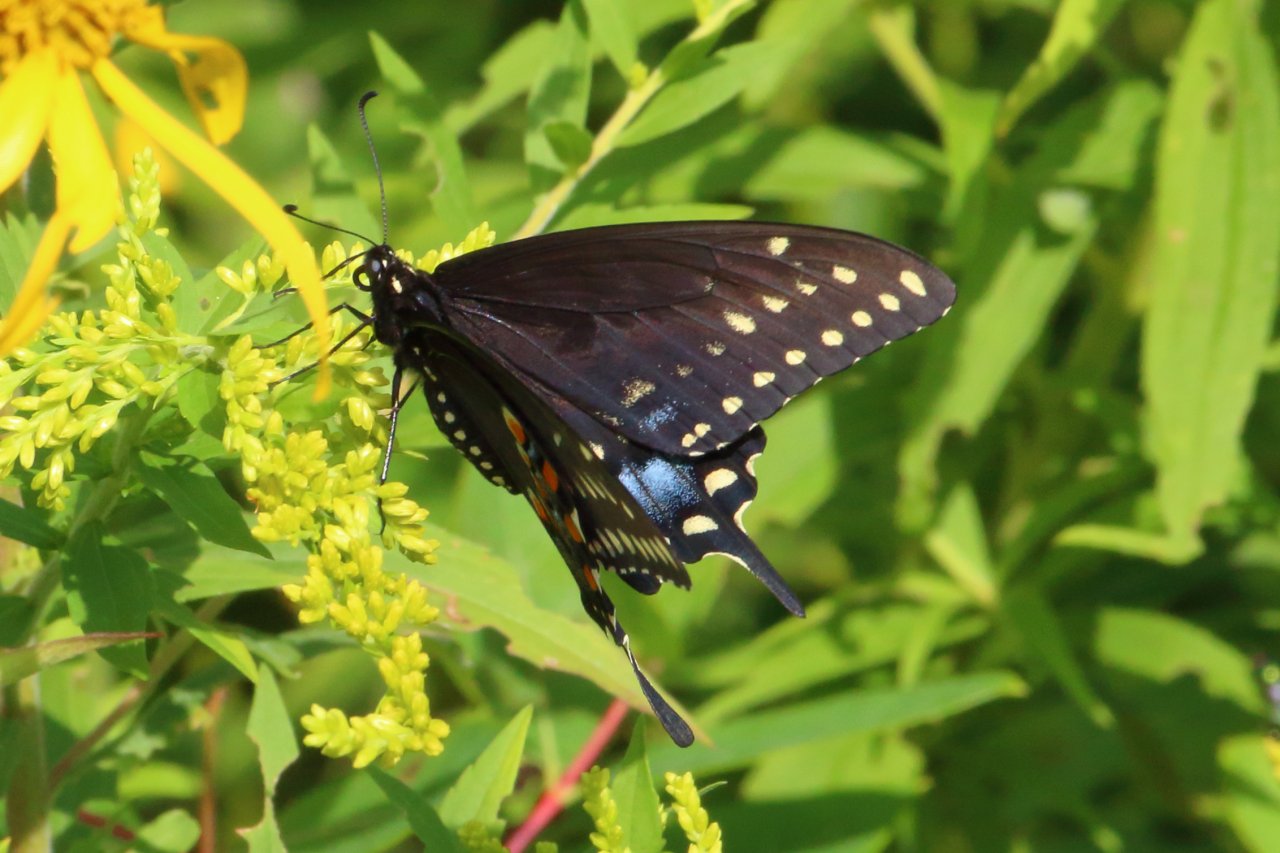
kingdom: Animalia
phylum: Arthropoda
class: Insecta
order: Lepidoptera
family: Papilionidae
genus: Papilio
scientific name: Papilio polyxenes
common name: Black Swallowtail
